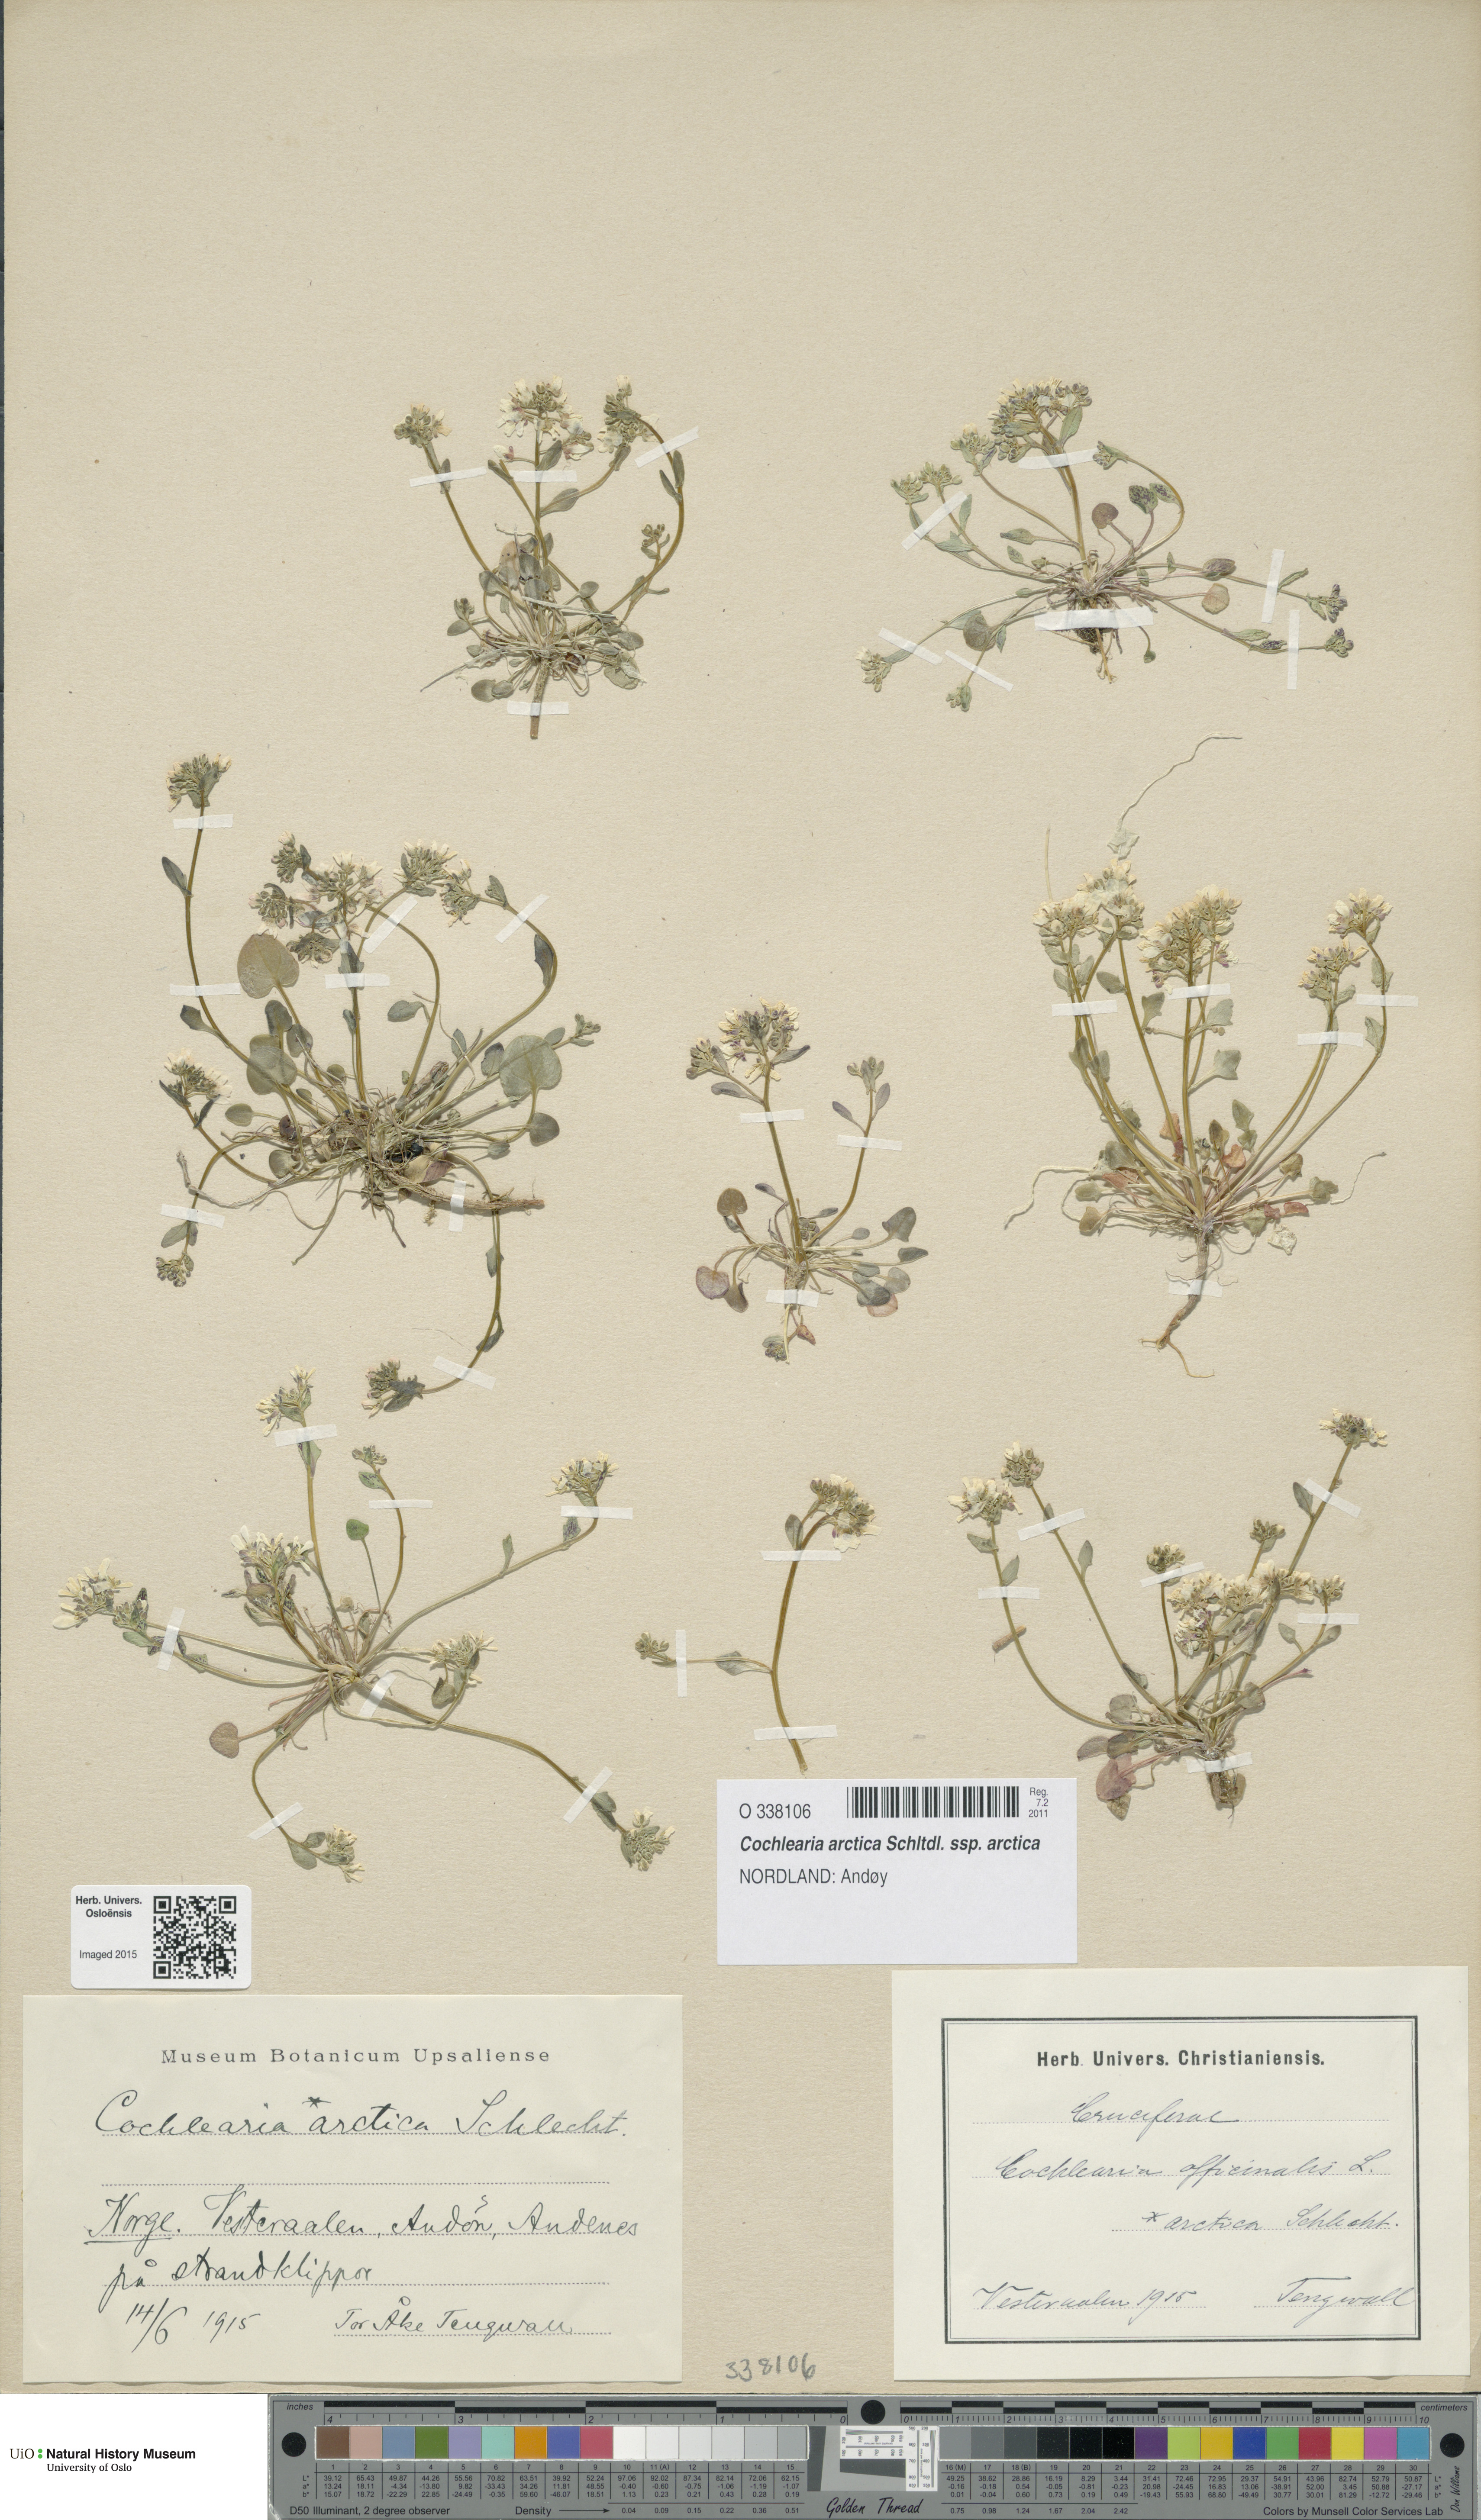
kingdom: Plantae
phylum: Tracheophyta
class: Magnoliopsida
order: Brassicales
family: Brassicaceae
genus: Cochlearia
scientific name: Cochlearia arctica
